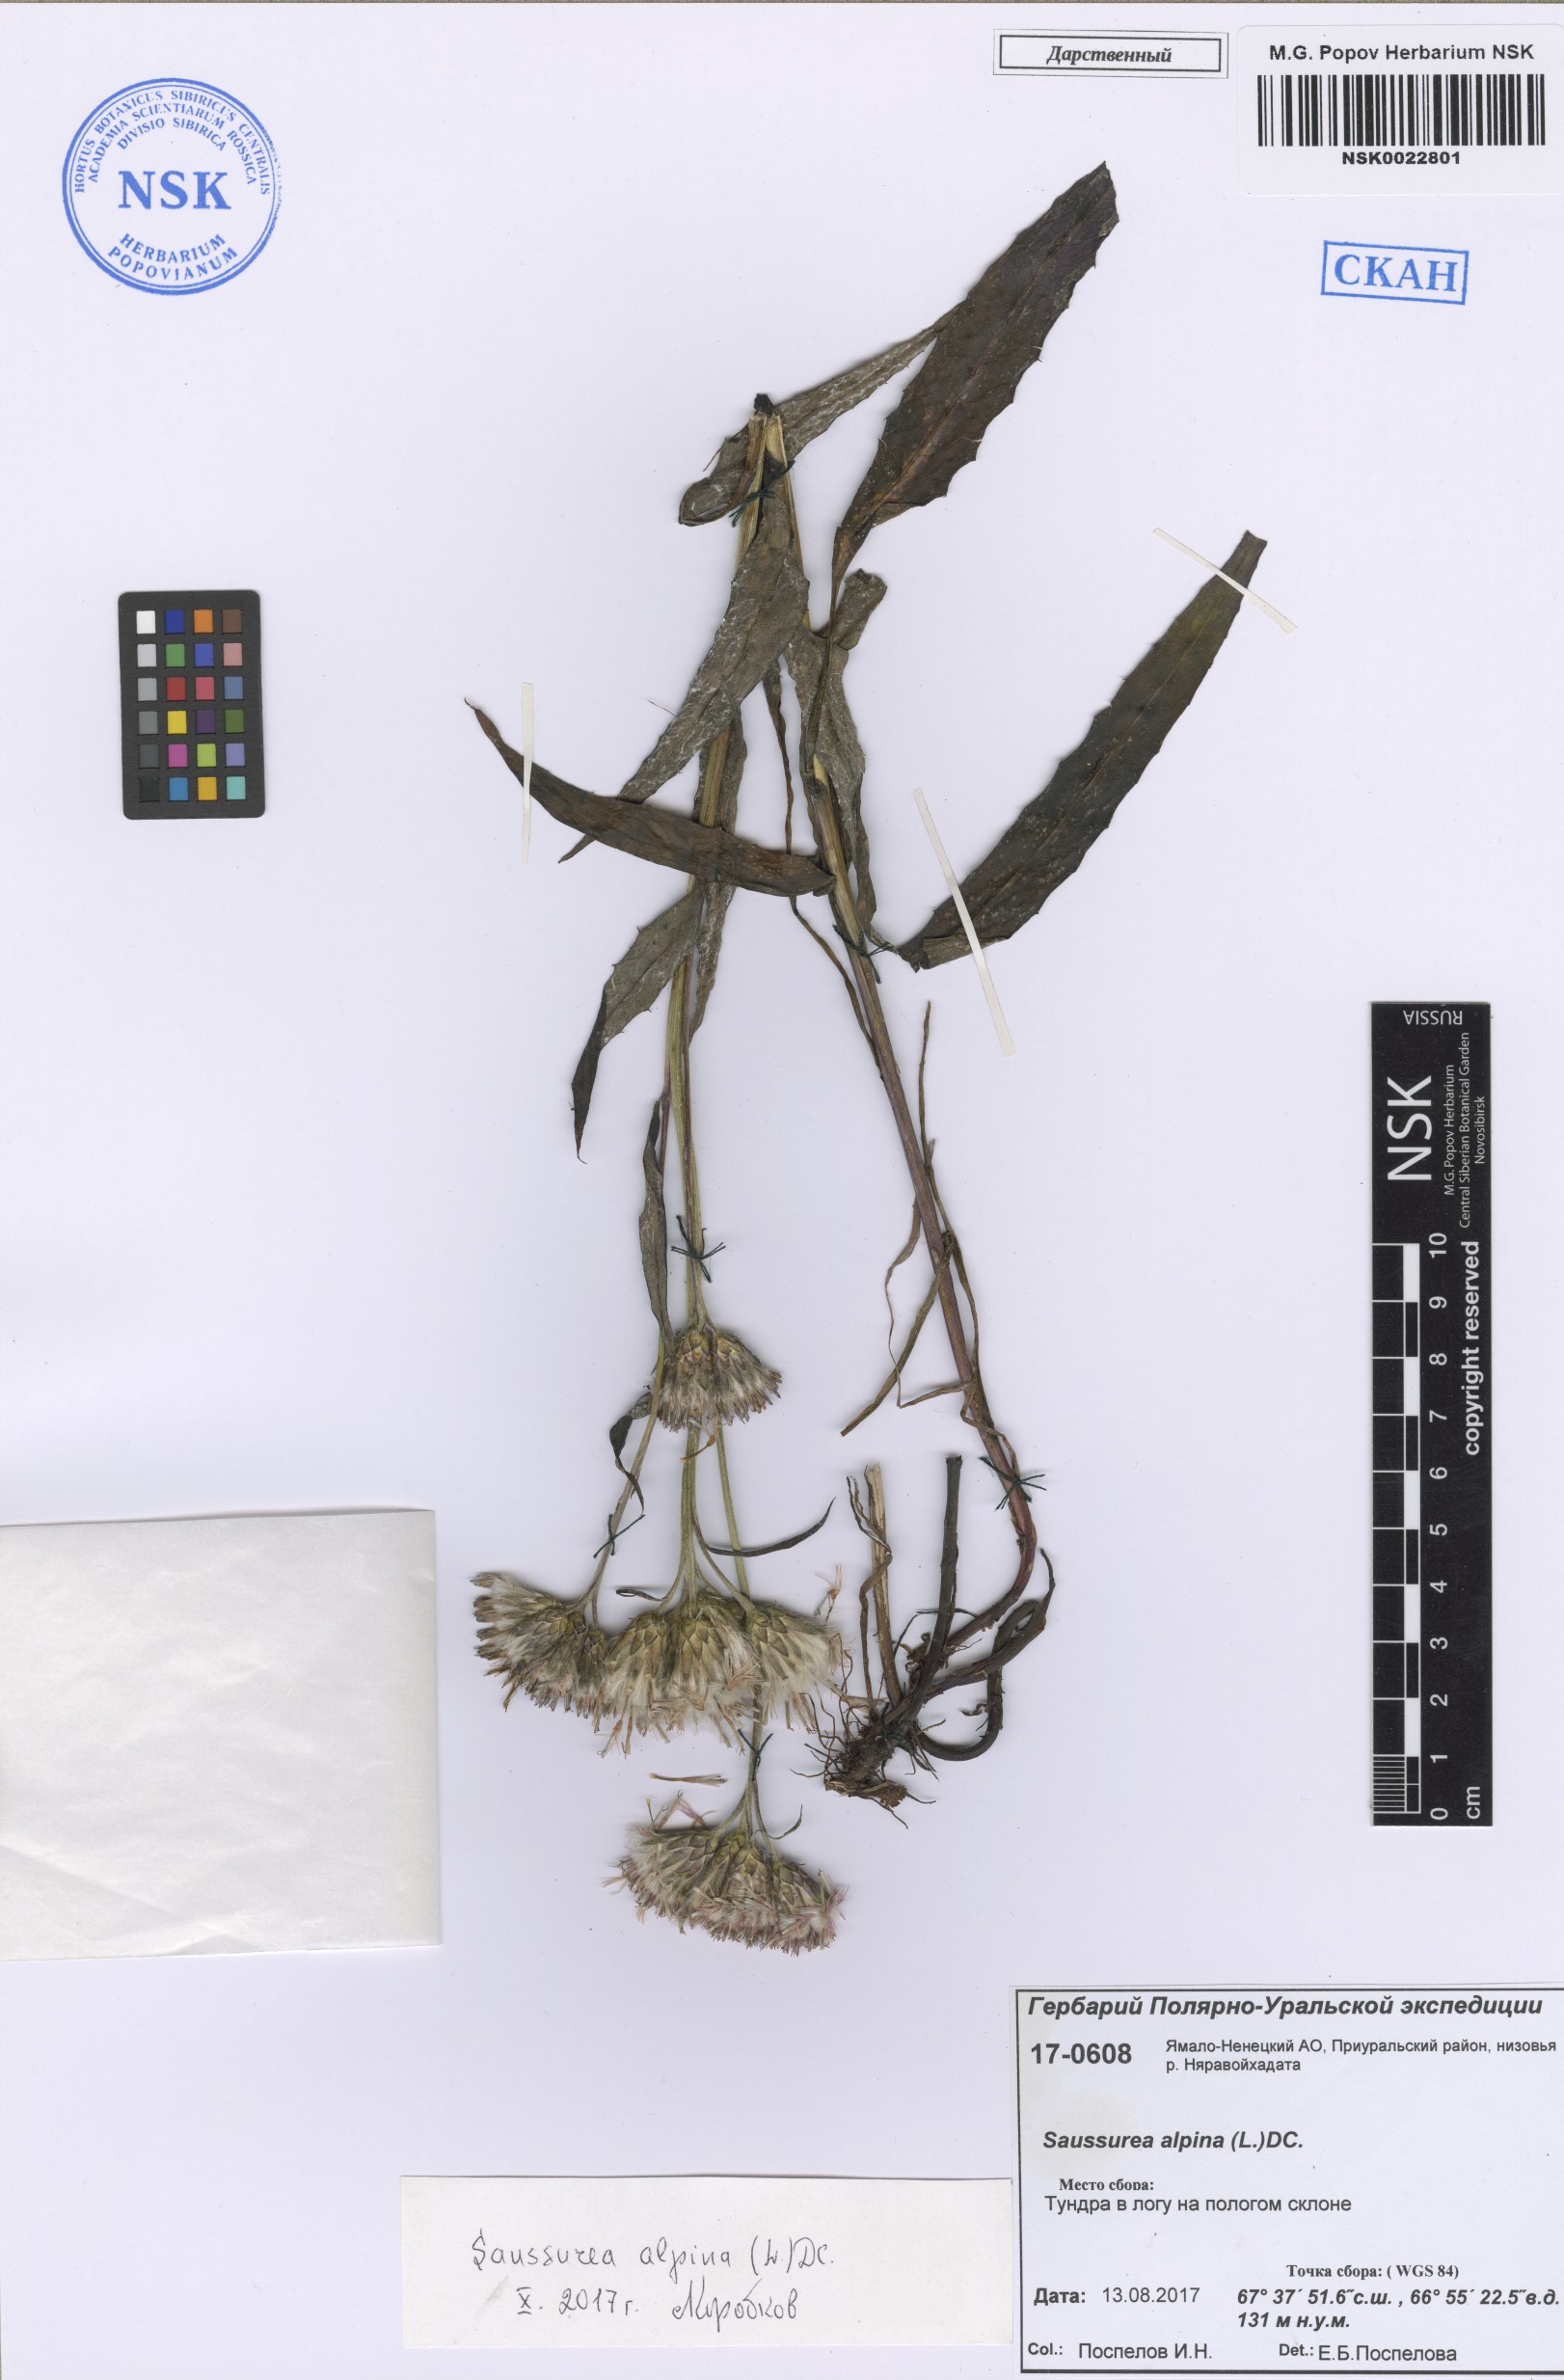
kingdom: Plantae
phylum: Tracheophyta
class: Magnoliopsida
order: Asterales
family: Asteraceae
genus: Saussurea
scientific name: Saussurea alpina
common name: Alpine saw-wort
